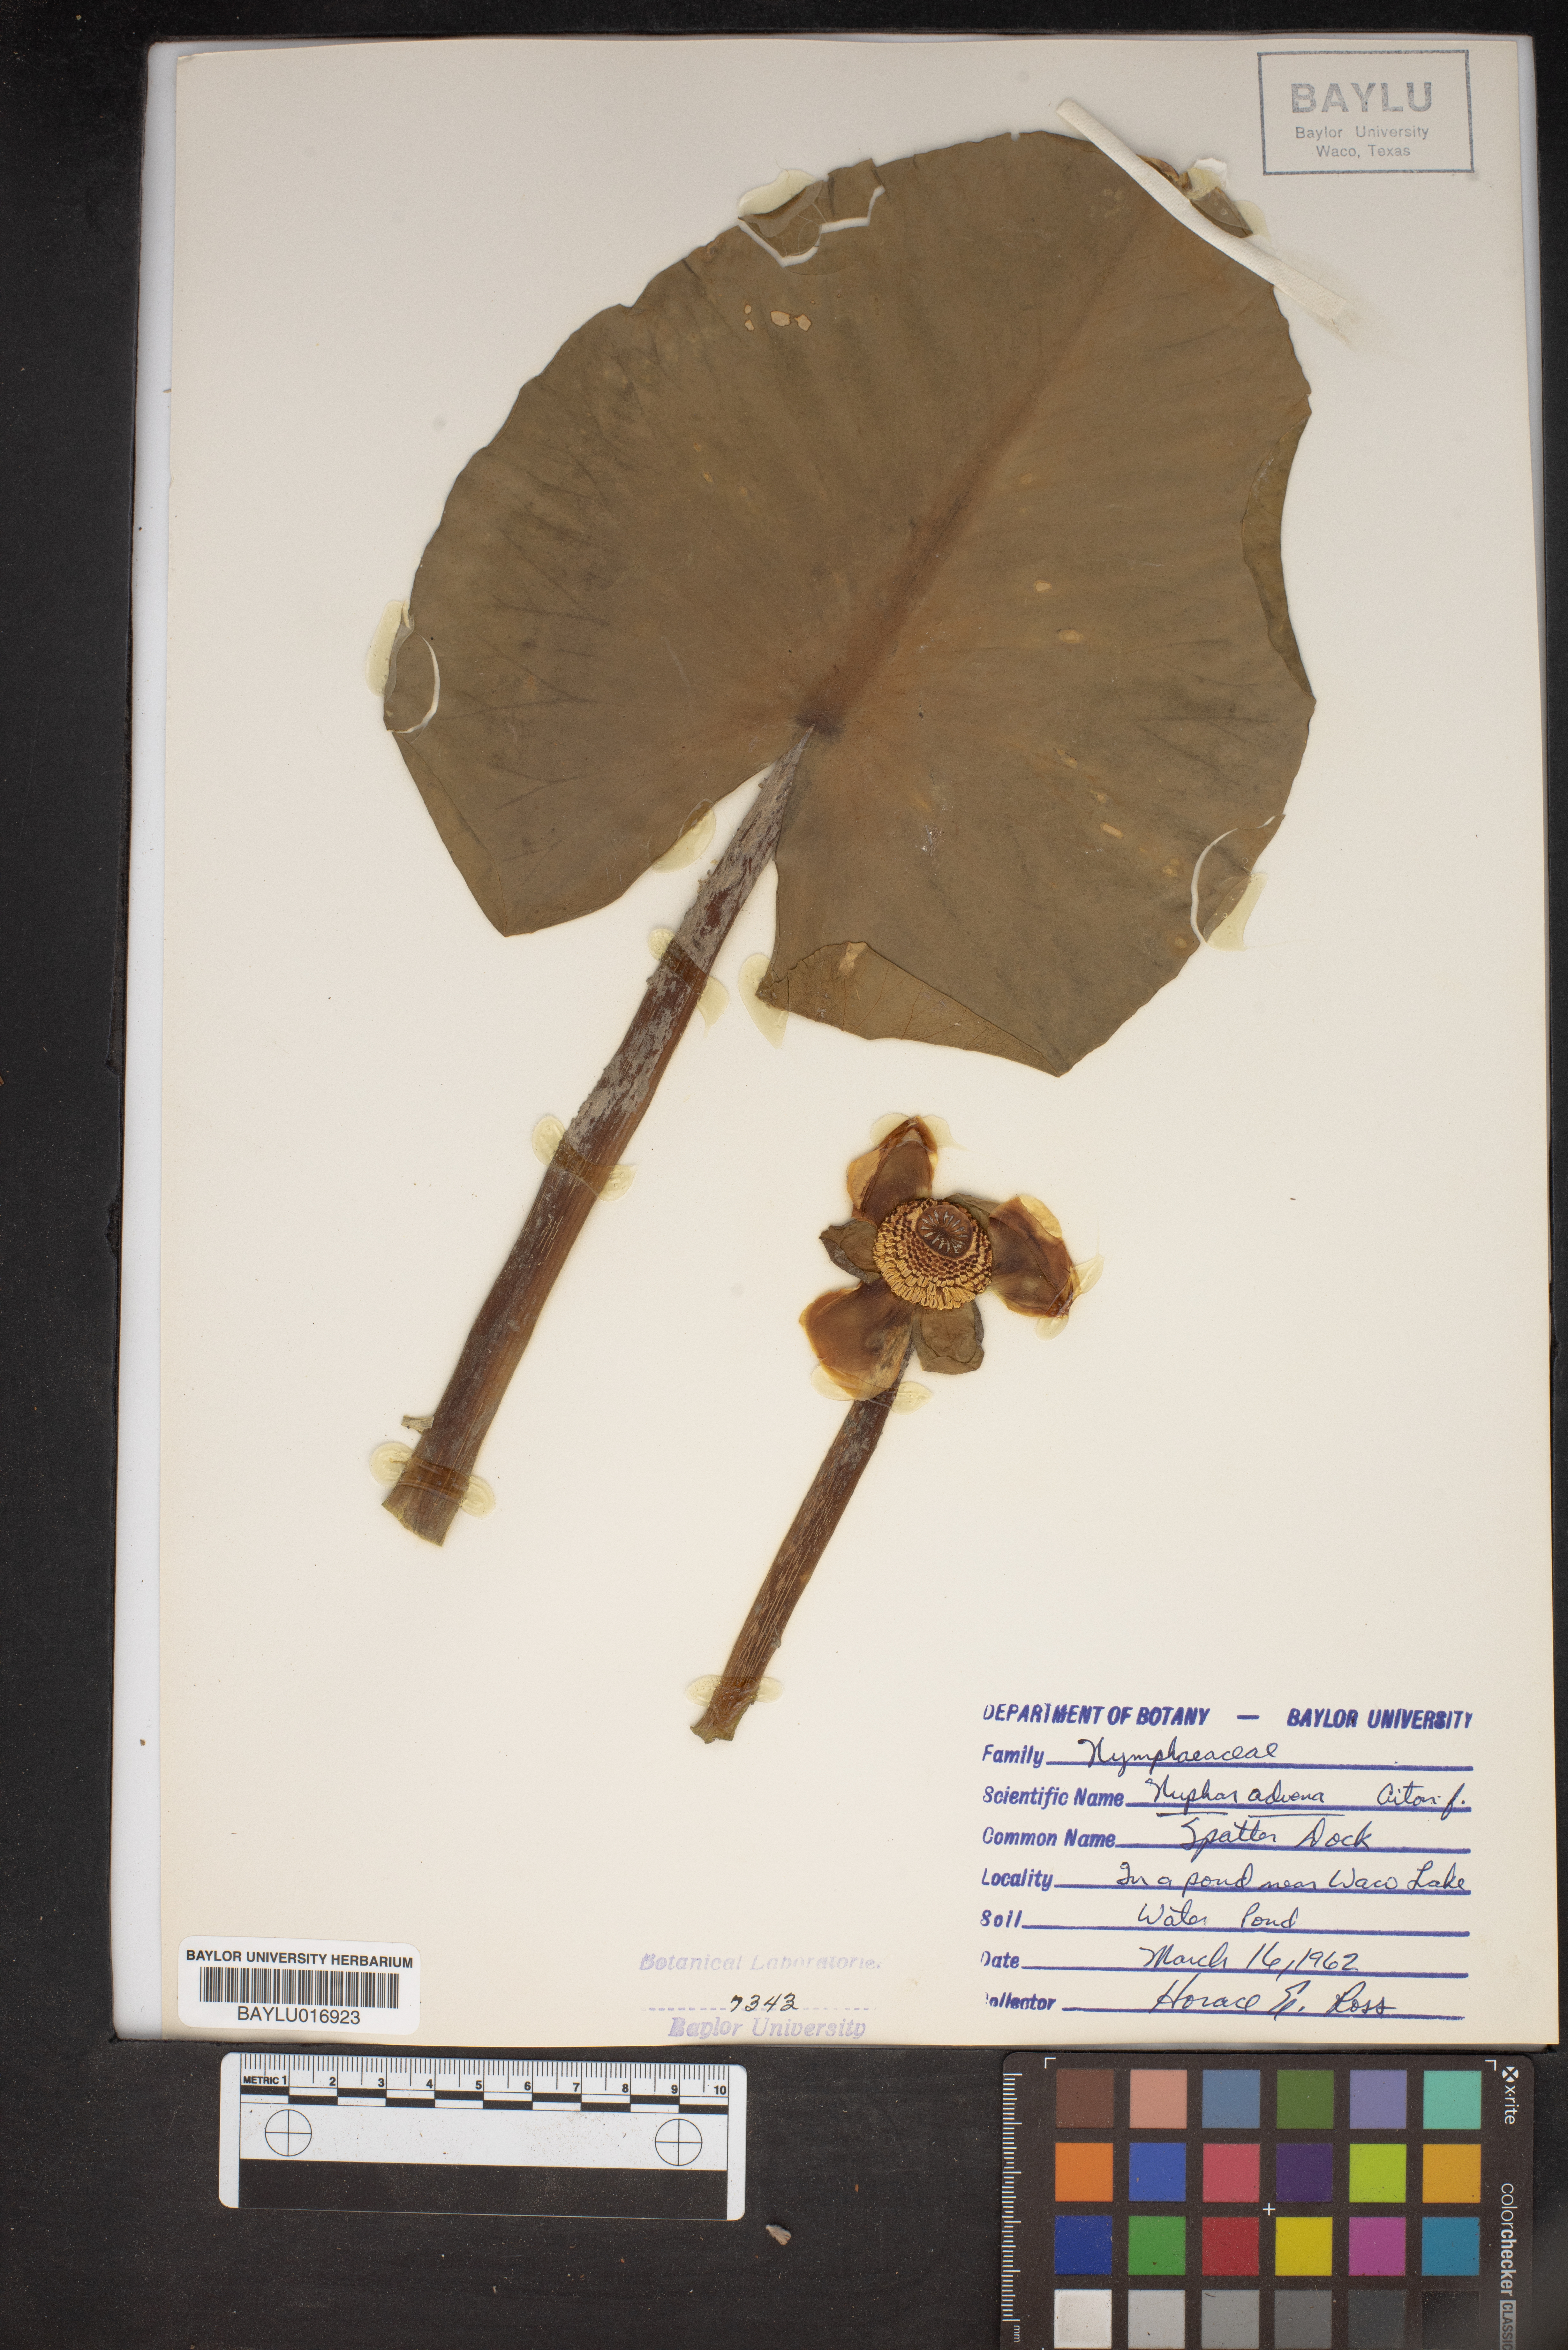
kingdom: Plantae
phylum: Tracheophyta
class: Magnoliopsida
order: Nymphaeales
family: Nymphaeaceae
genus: Nuphar
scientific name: Nuphar advena
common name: Spatter-dock
